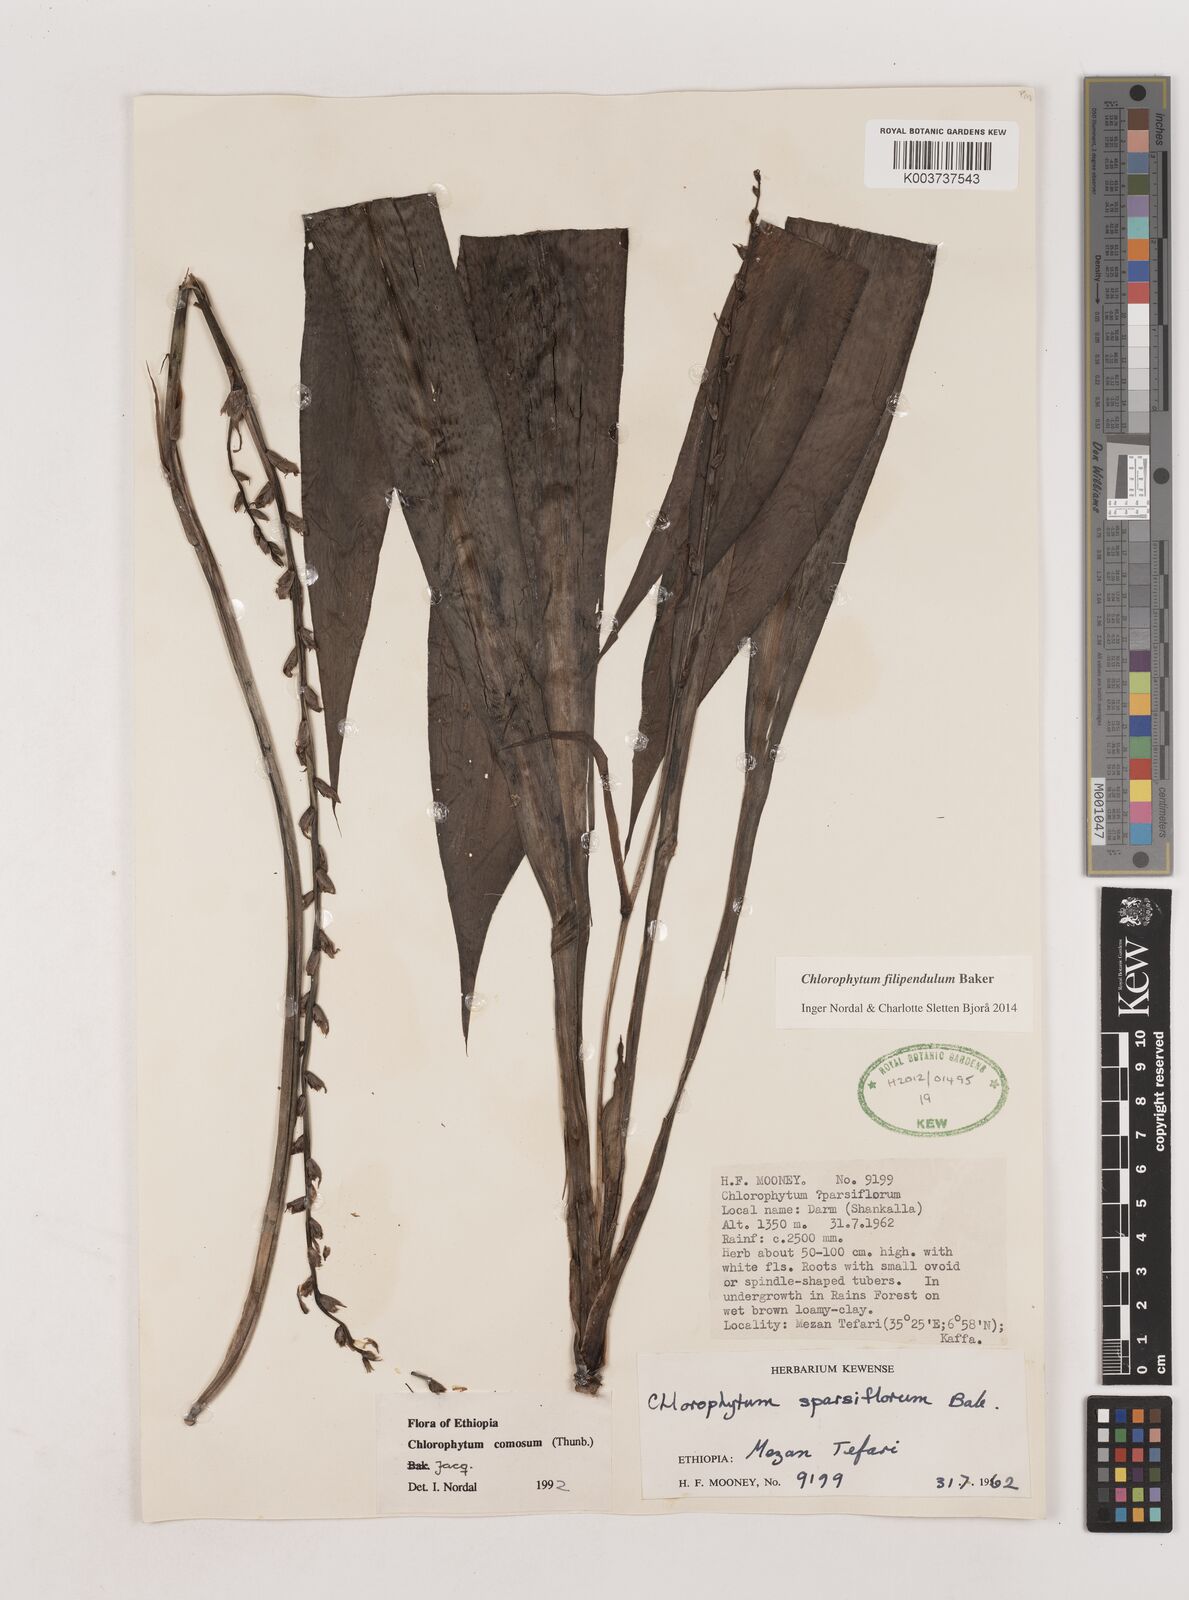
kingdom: Plantae
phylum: Tracheophyta
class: Liliopsida
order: Asparagales
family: Asparagaceae
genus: Chlorophytum
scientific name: Chlorophytum filipendulum
